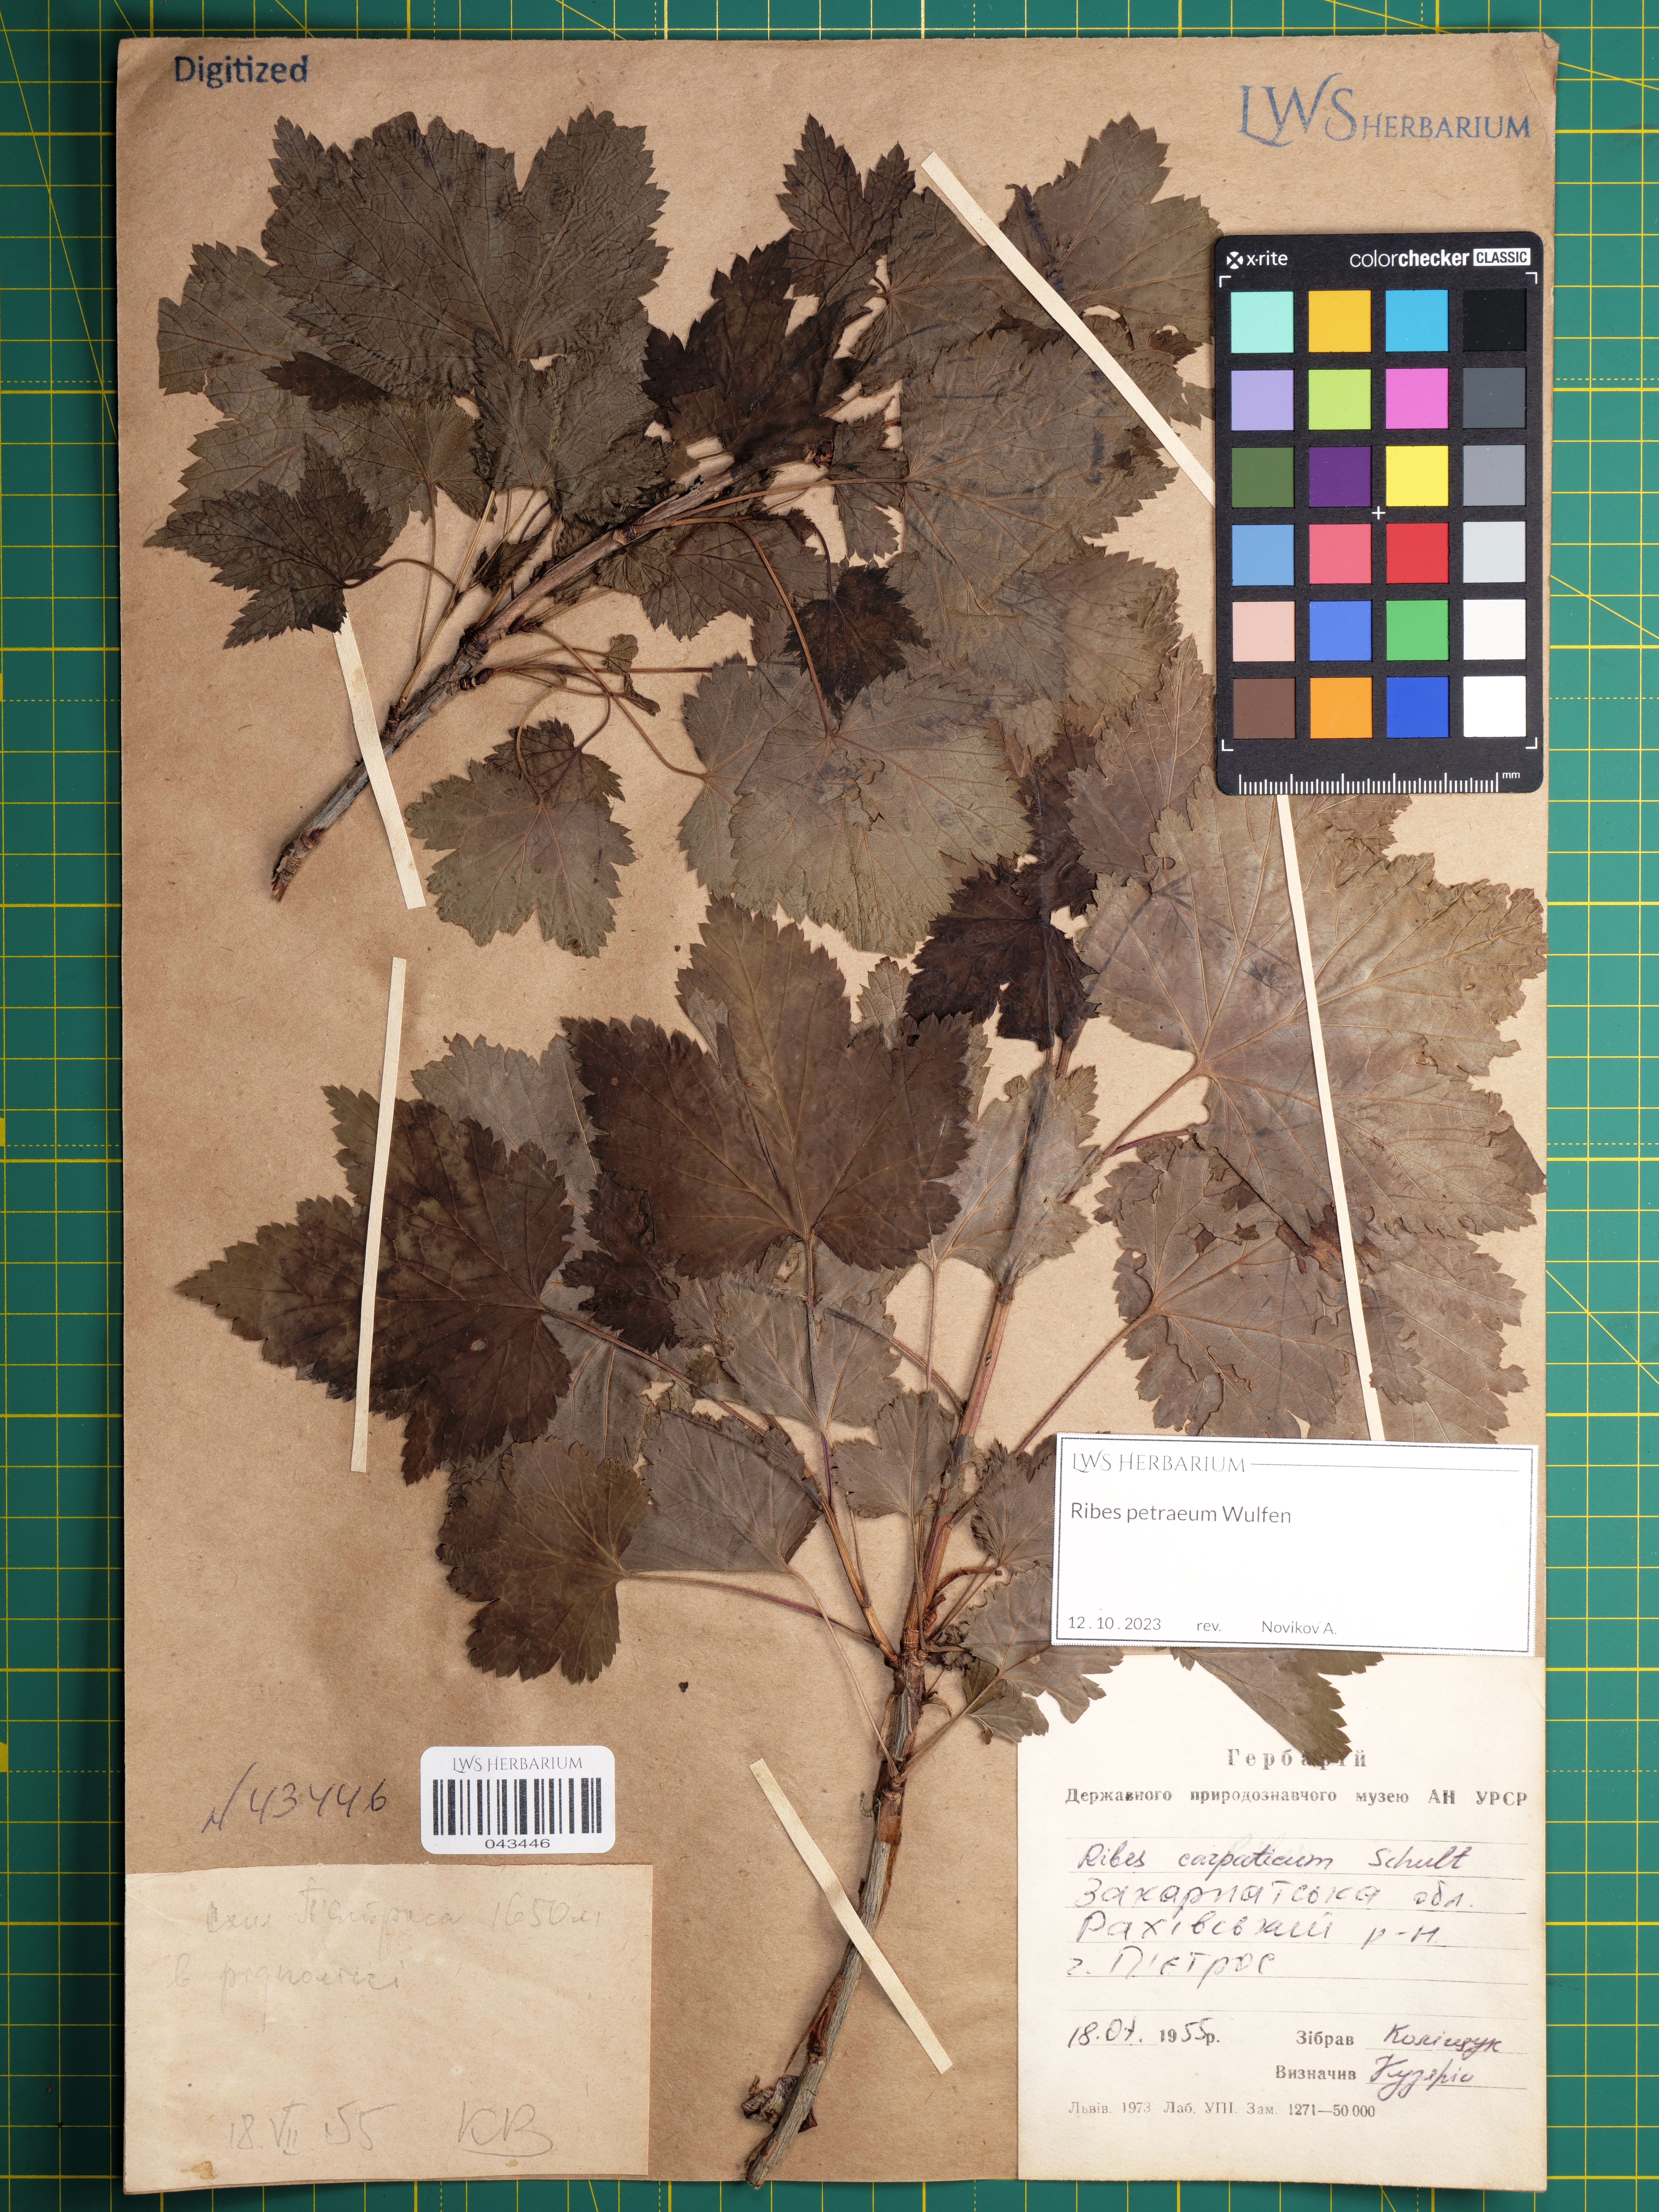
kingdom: Plantae
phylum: Tracheophyta
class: Magnoliopsida
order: Saxifragales
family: Grossulariaceae
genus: Ribes
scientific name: Ribes petraeum
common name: Rock currant
